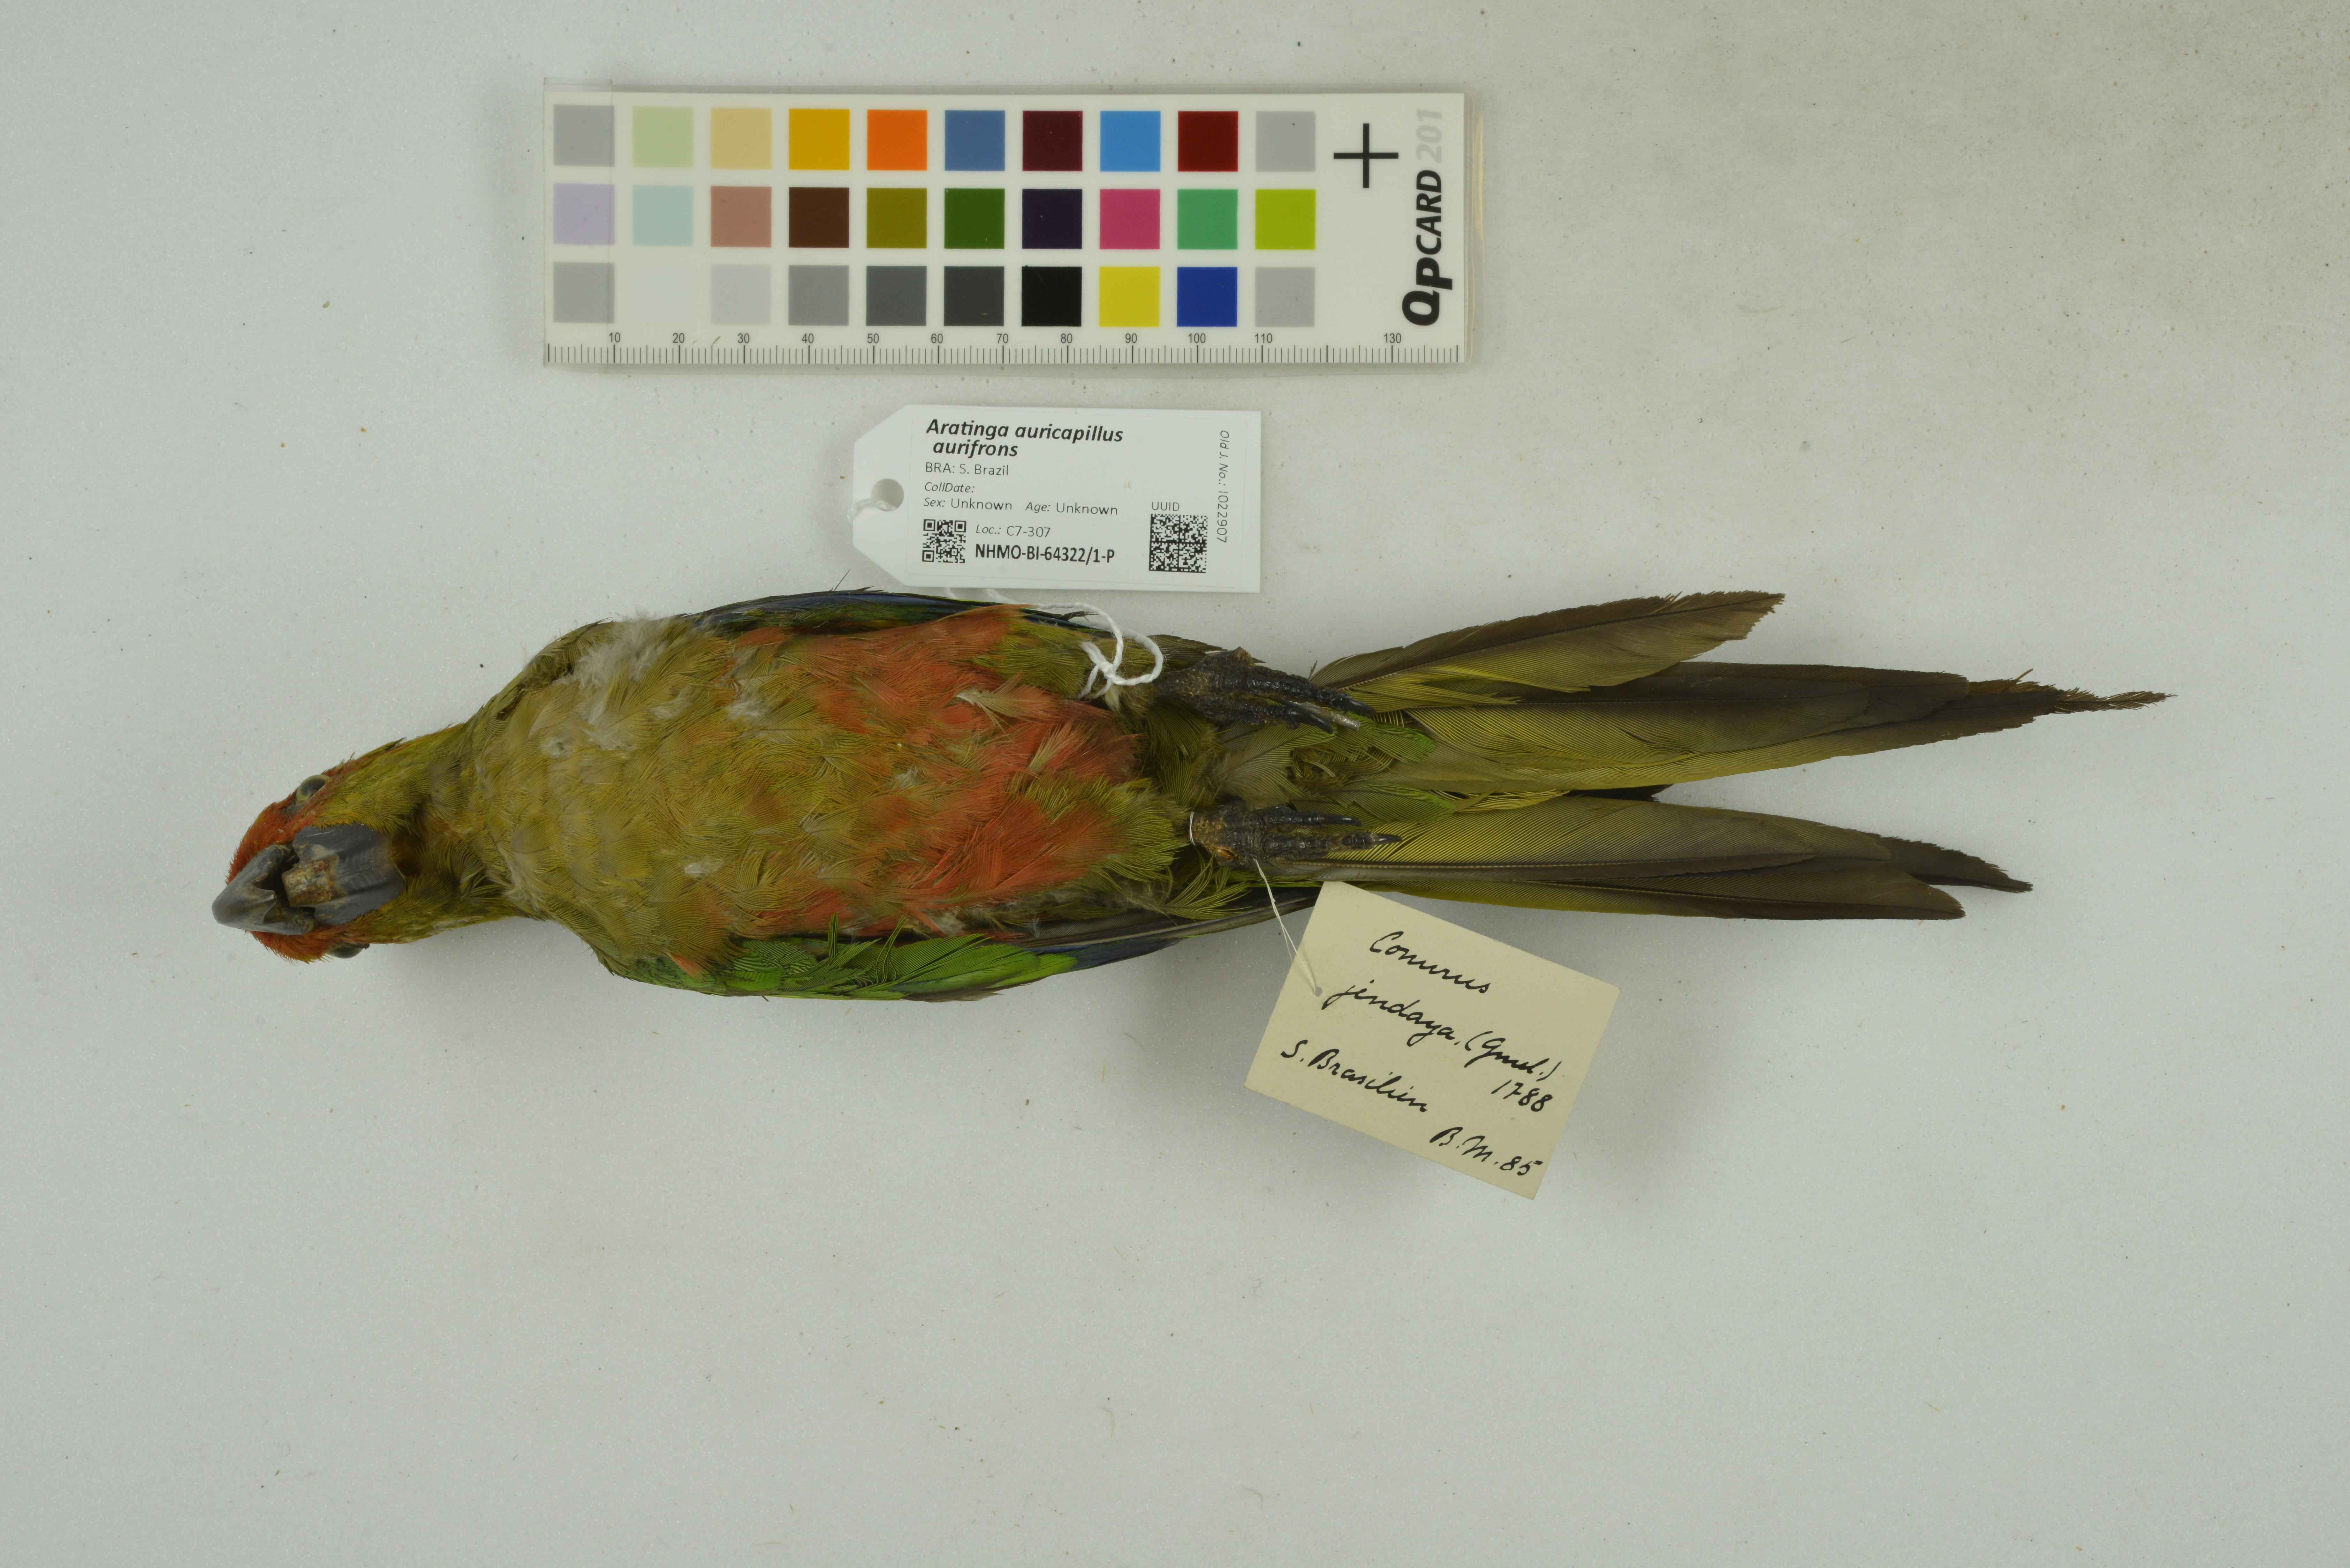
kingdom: Animalia
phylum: Chordata
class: Aves
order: Psittaciformes
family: Psittacidae
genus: Aratinga
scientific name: Aratinga auricapillus
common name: Golden-capped parakeet
